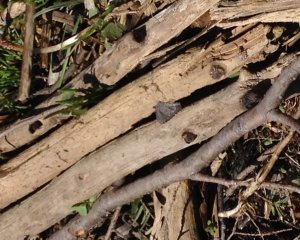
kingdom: Animalia
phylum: Arthropoda
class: Insecta
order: Lepidoptera
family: Lycaenidae
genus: Celastrina
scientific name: Celastrina lucia
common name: Northern Spring Azure
